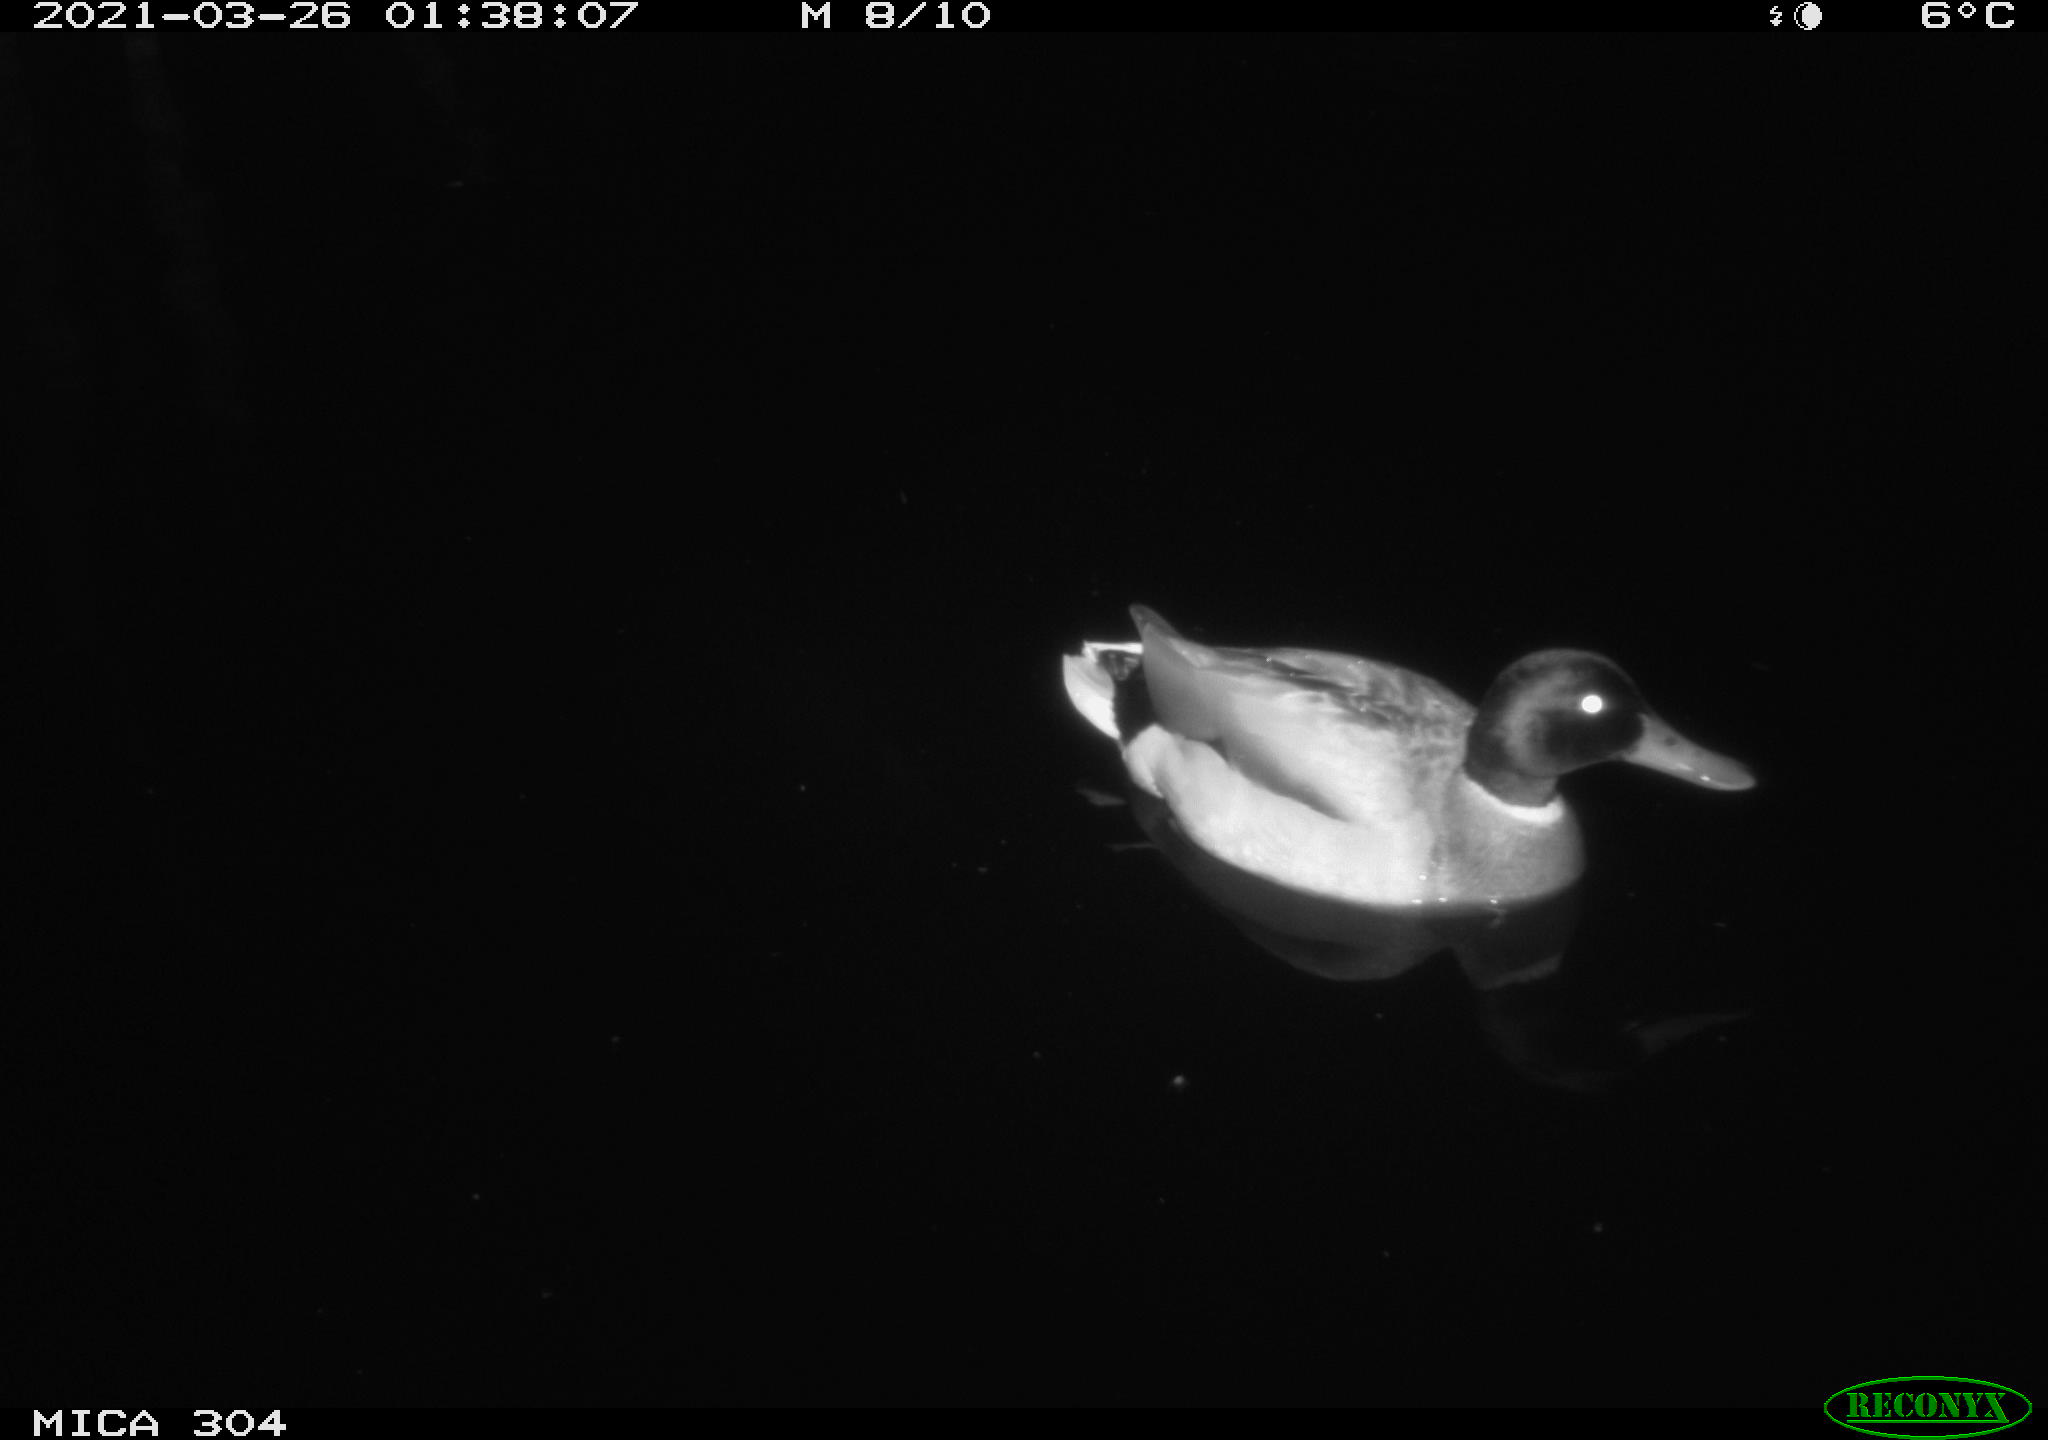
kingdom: Animalia
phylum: Chordata
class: Aves
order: Anseriformes
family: Anatidae
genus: Anas
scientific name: Anas platyrhynchos
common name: Mallard
